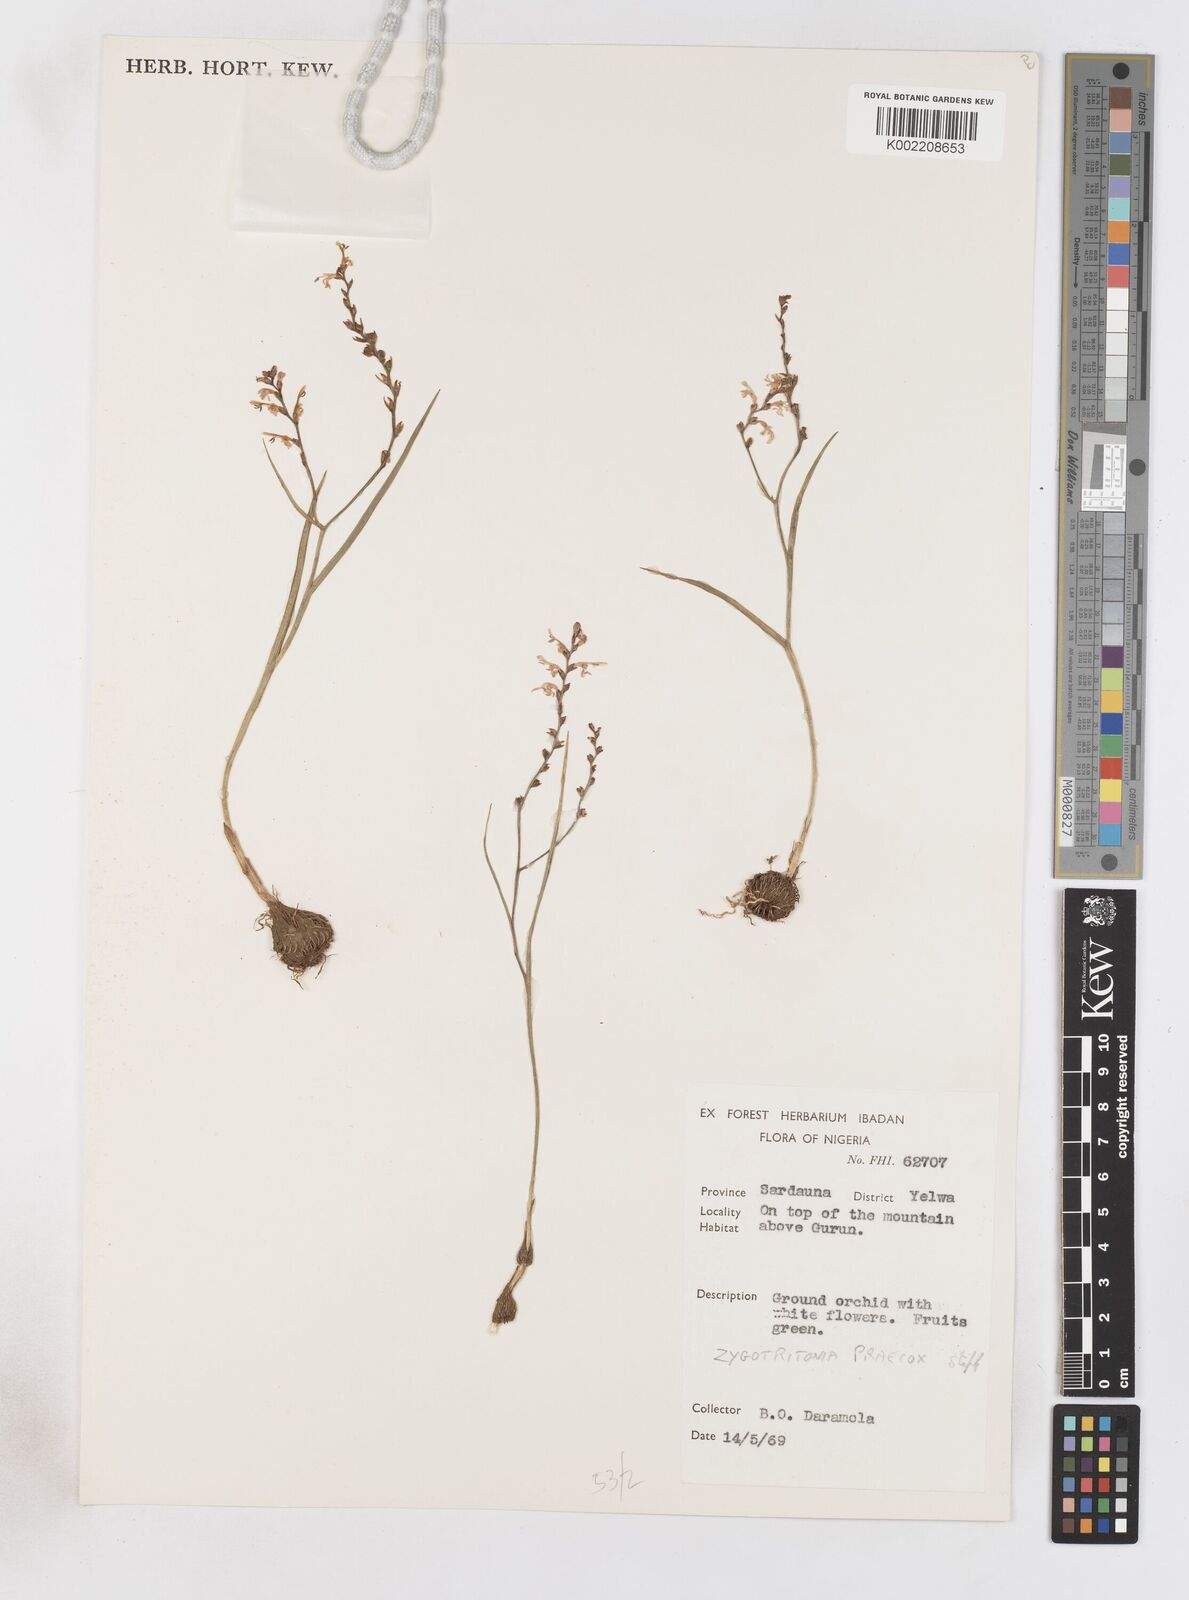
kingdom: Plantae
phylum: Tracheophyta
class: Liliopsida
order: Asparagales
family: Iridaceae
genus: Zygotritonia
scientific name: Zygotritonia praecox
